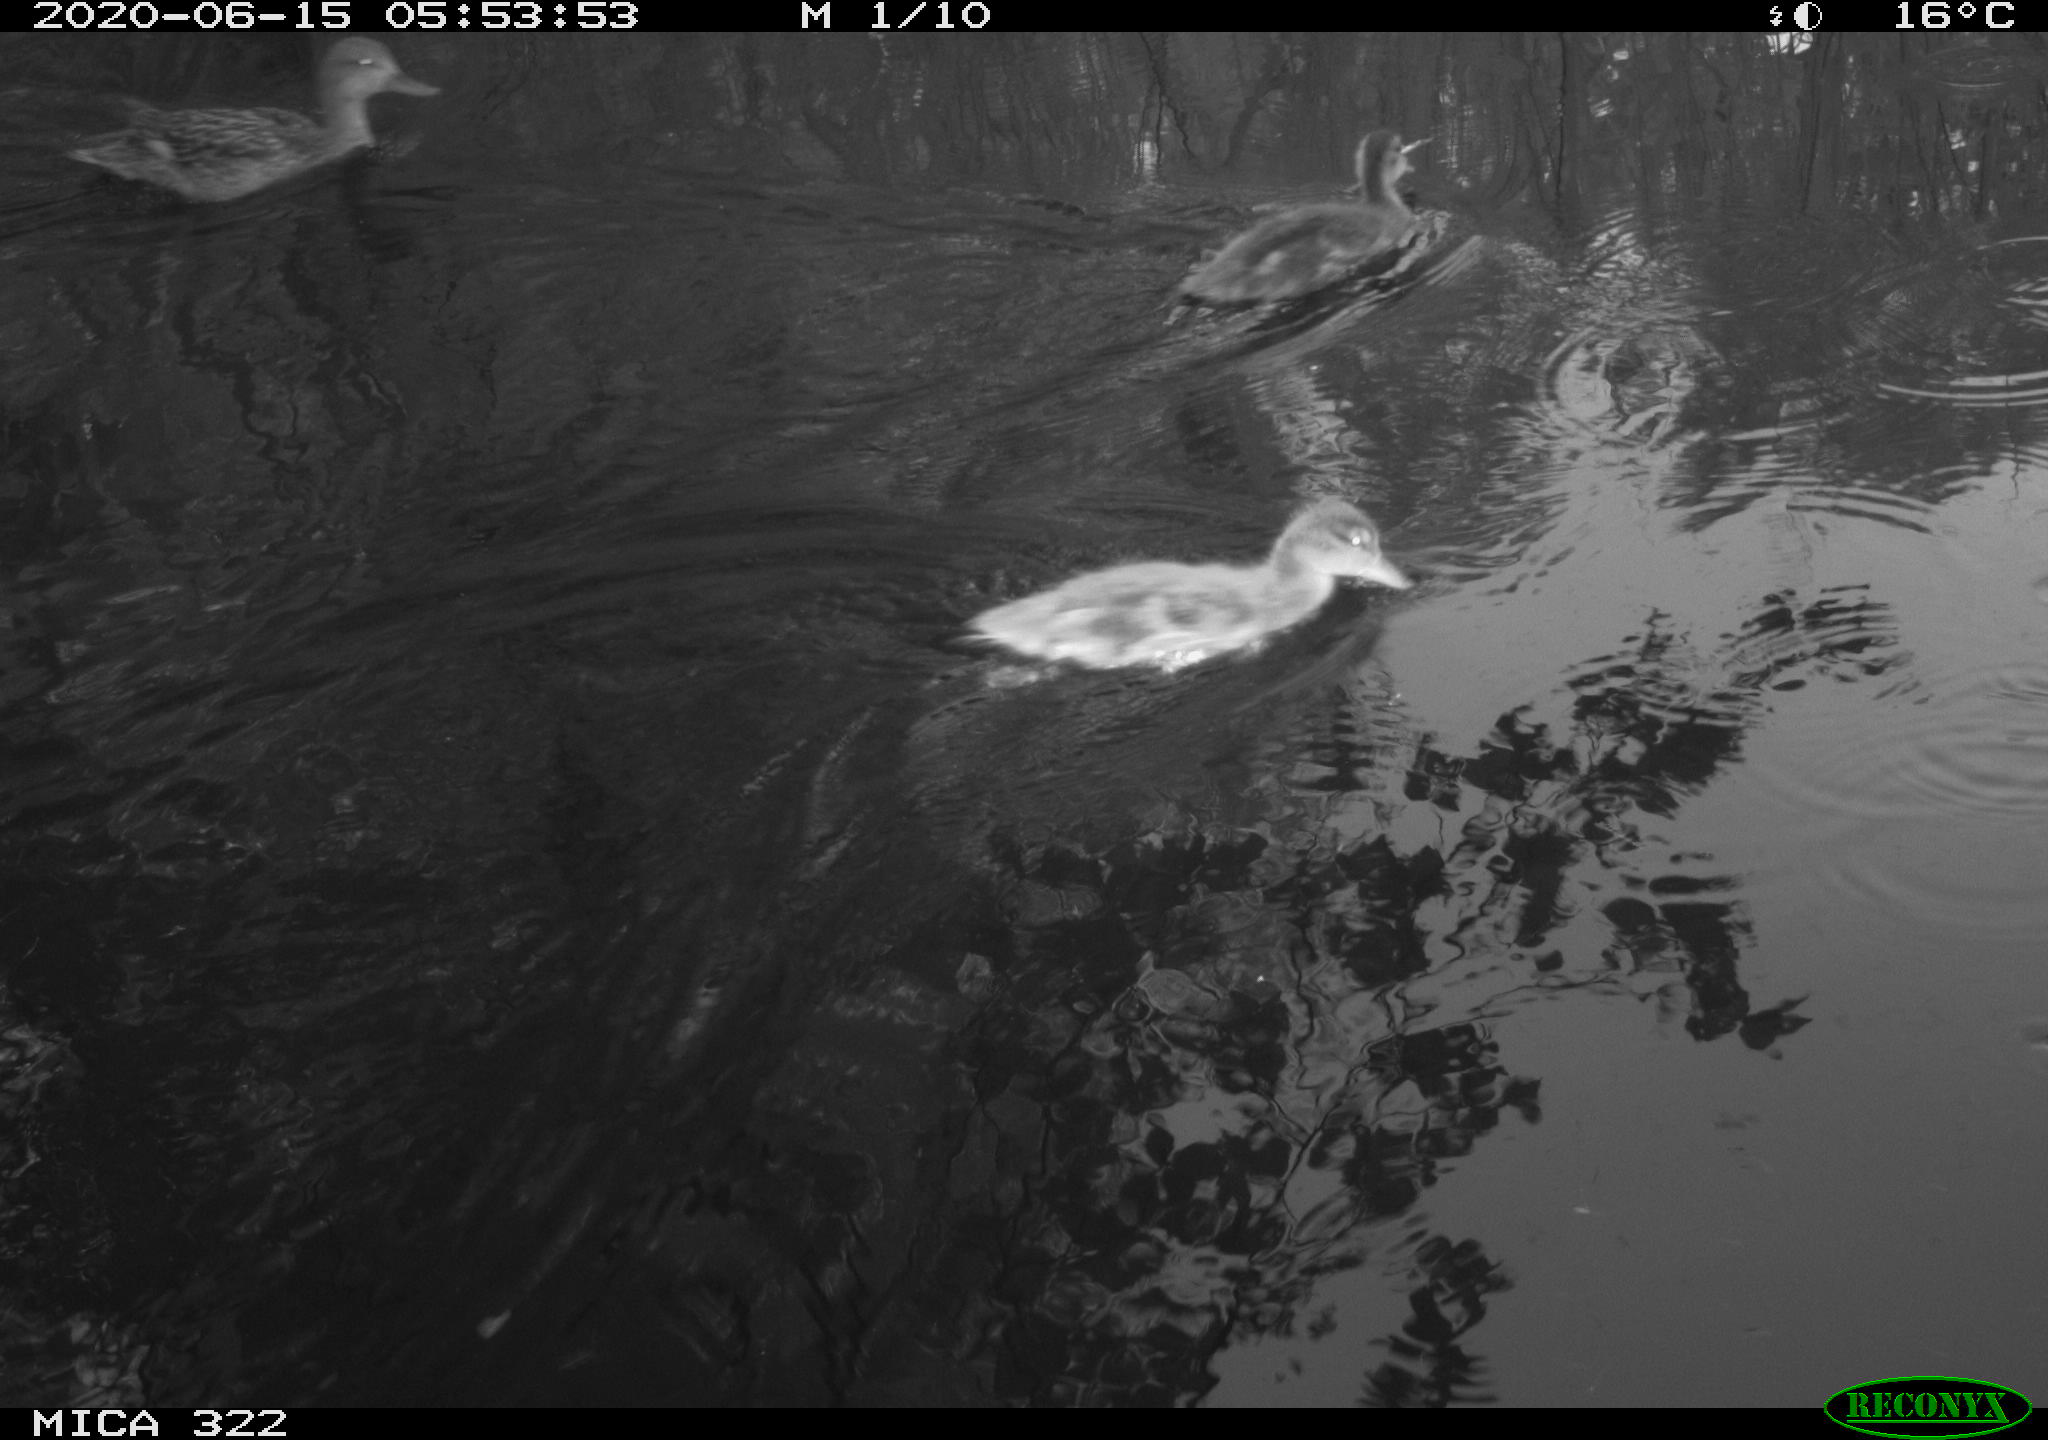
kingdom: Animalia
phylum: Chordata
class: Aves
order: Anseriformes
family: Anatidae
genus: Anas
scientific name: Anas platyrhynchos
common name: Mallard
